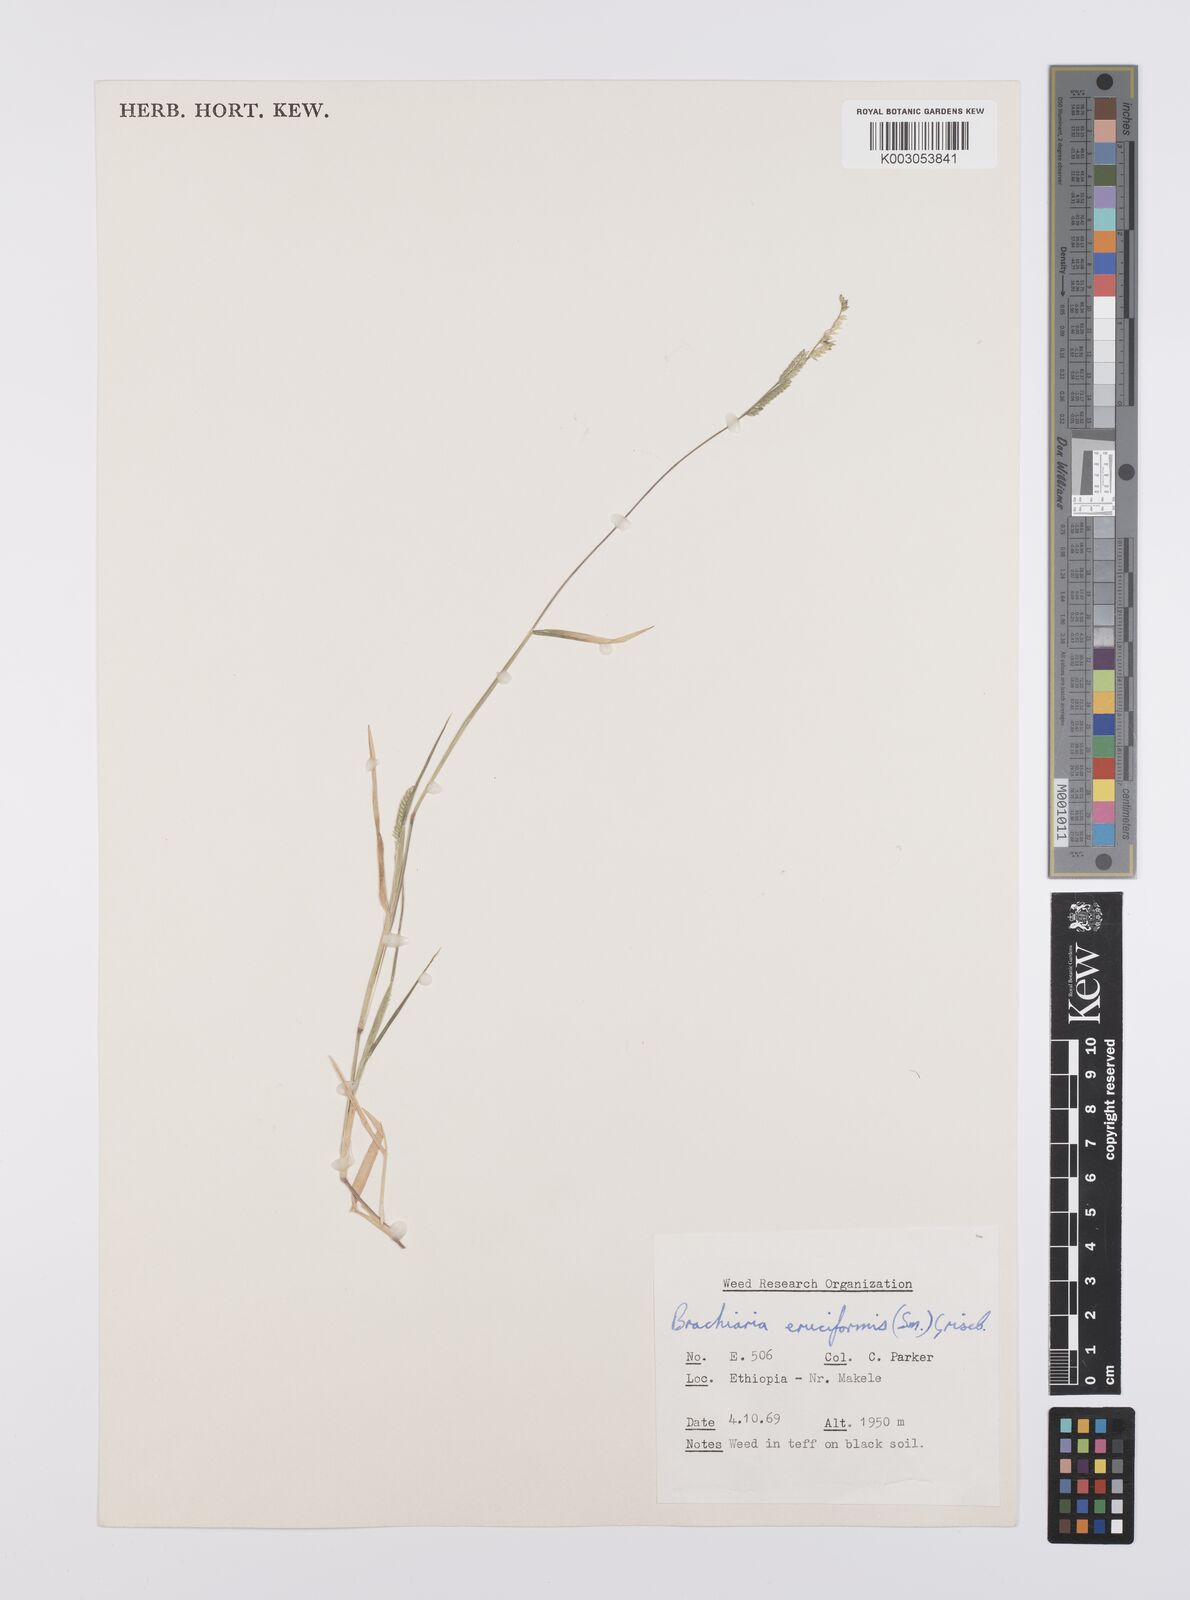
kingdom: Plantae
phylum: Tracheophyta
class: Liliopsida
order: Poales
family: Poaceae
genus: Moorochloa
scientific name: Moorochloa eruciformis
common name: Sweet signalgrass
